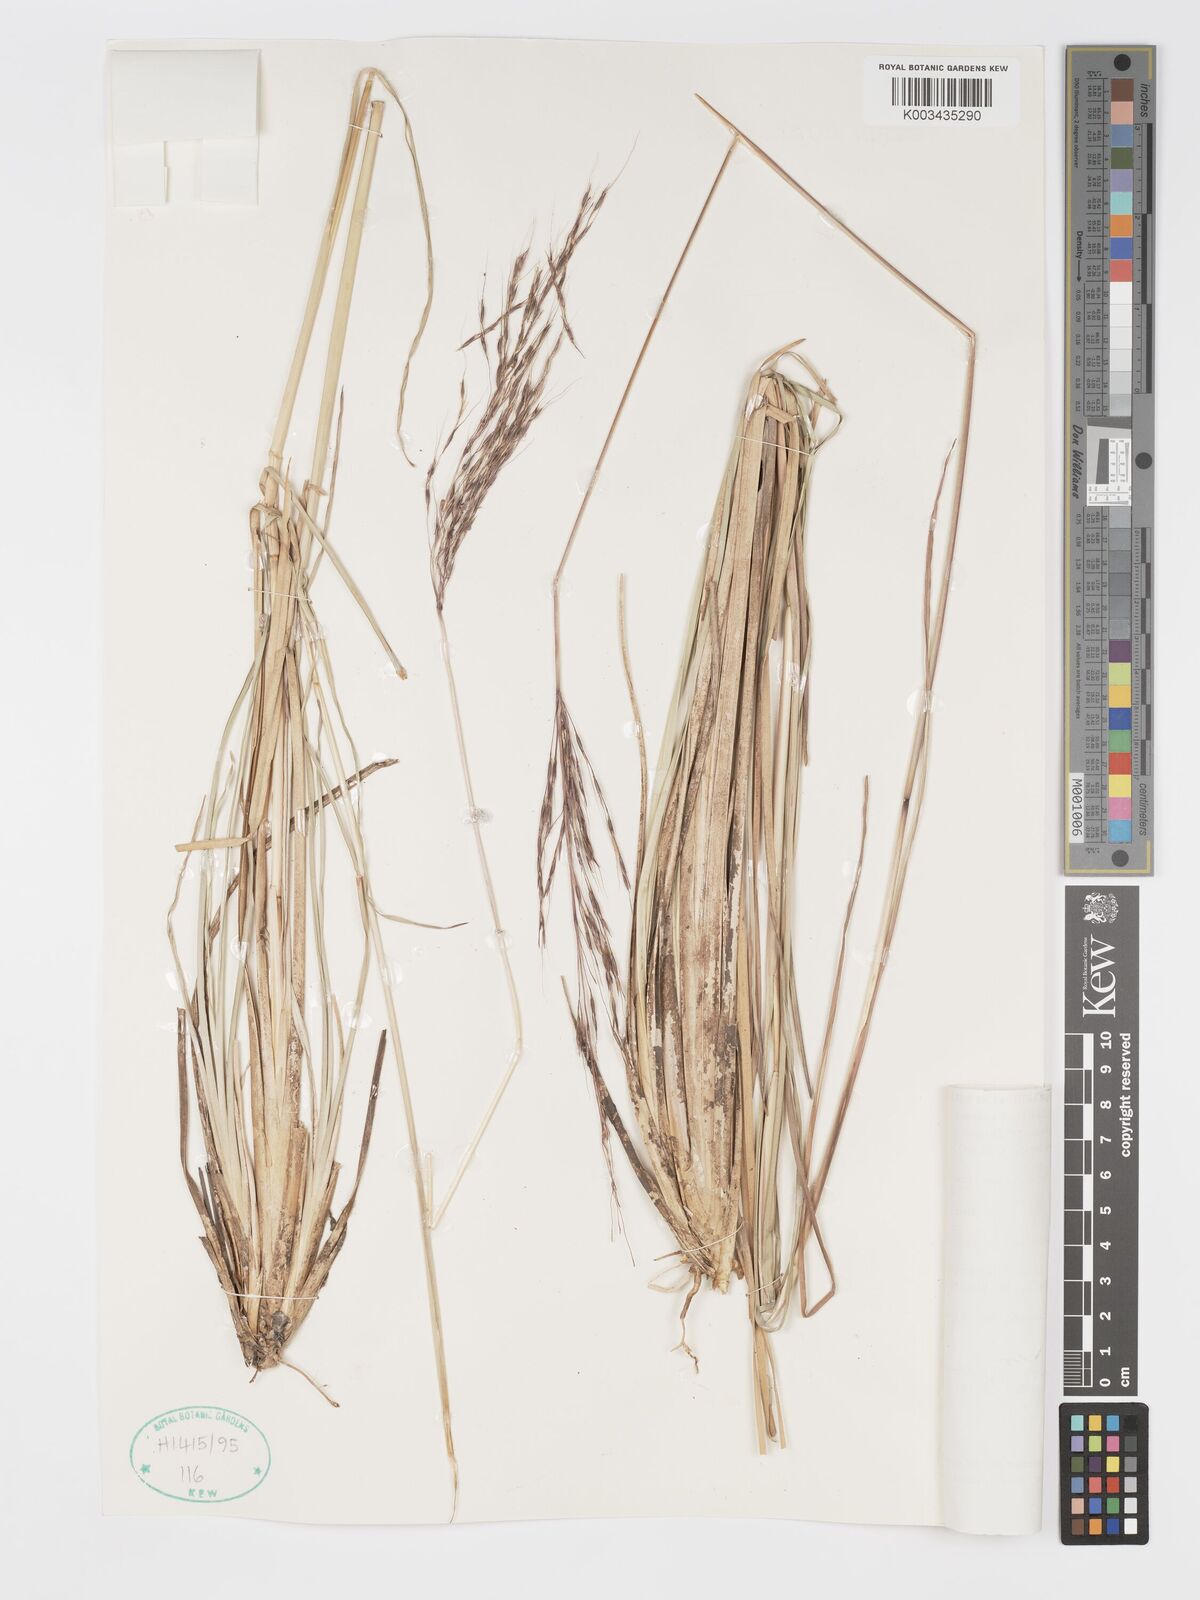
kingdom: Plantae
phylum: Tracheophyta
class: Liliopsida
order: Poales
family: Poaceae
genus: Chrysopogon
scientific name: Chrysopogon filipes
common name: Australian vetiver
